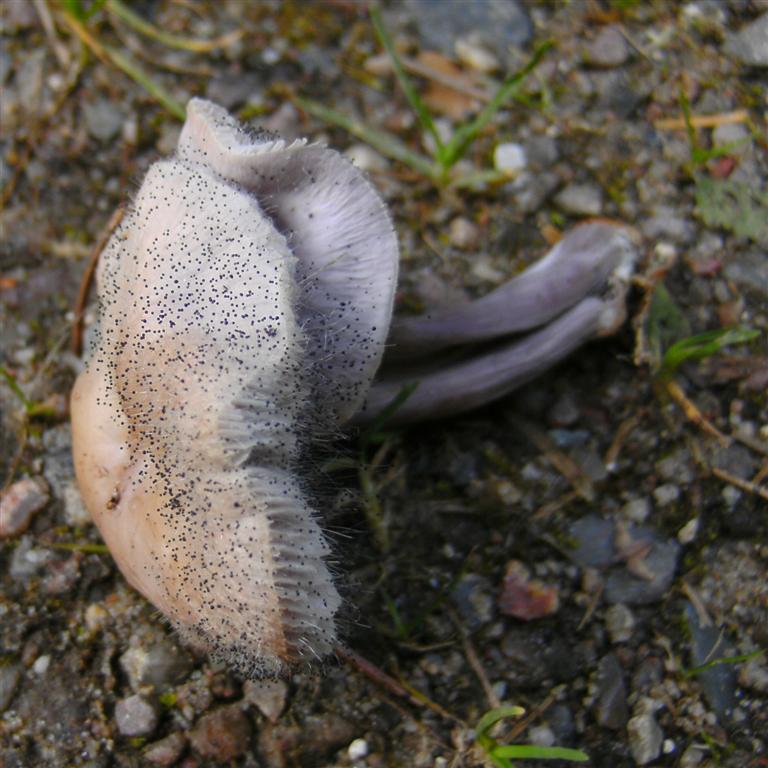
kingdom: Fungi
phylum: Mucoromycota
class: Mucoromycetes
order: Mucorales
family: Phycomycetaceae
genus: Spinellus
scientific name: Spinellus fusiger
